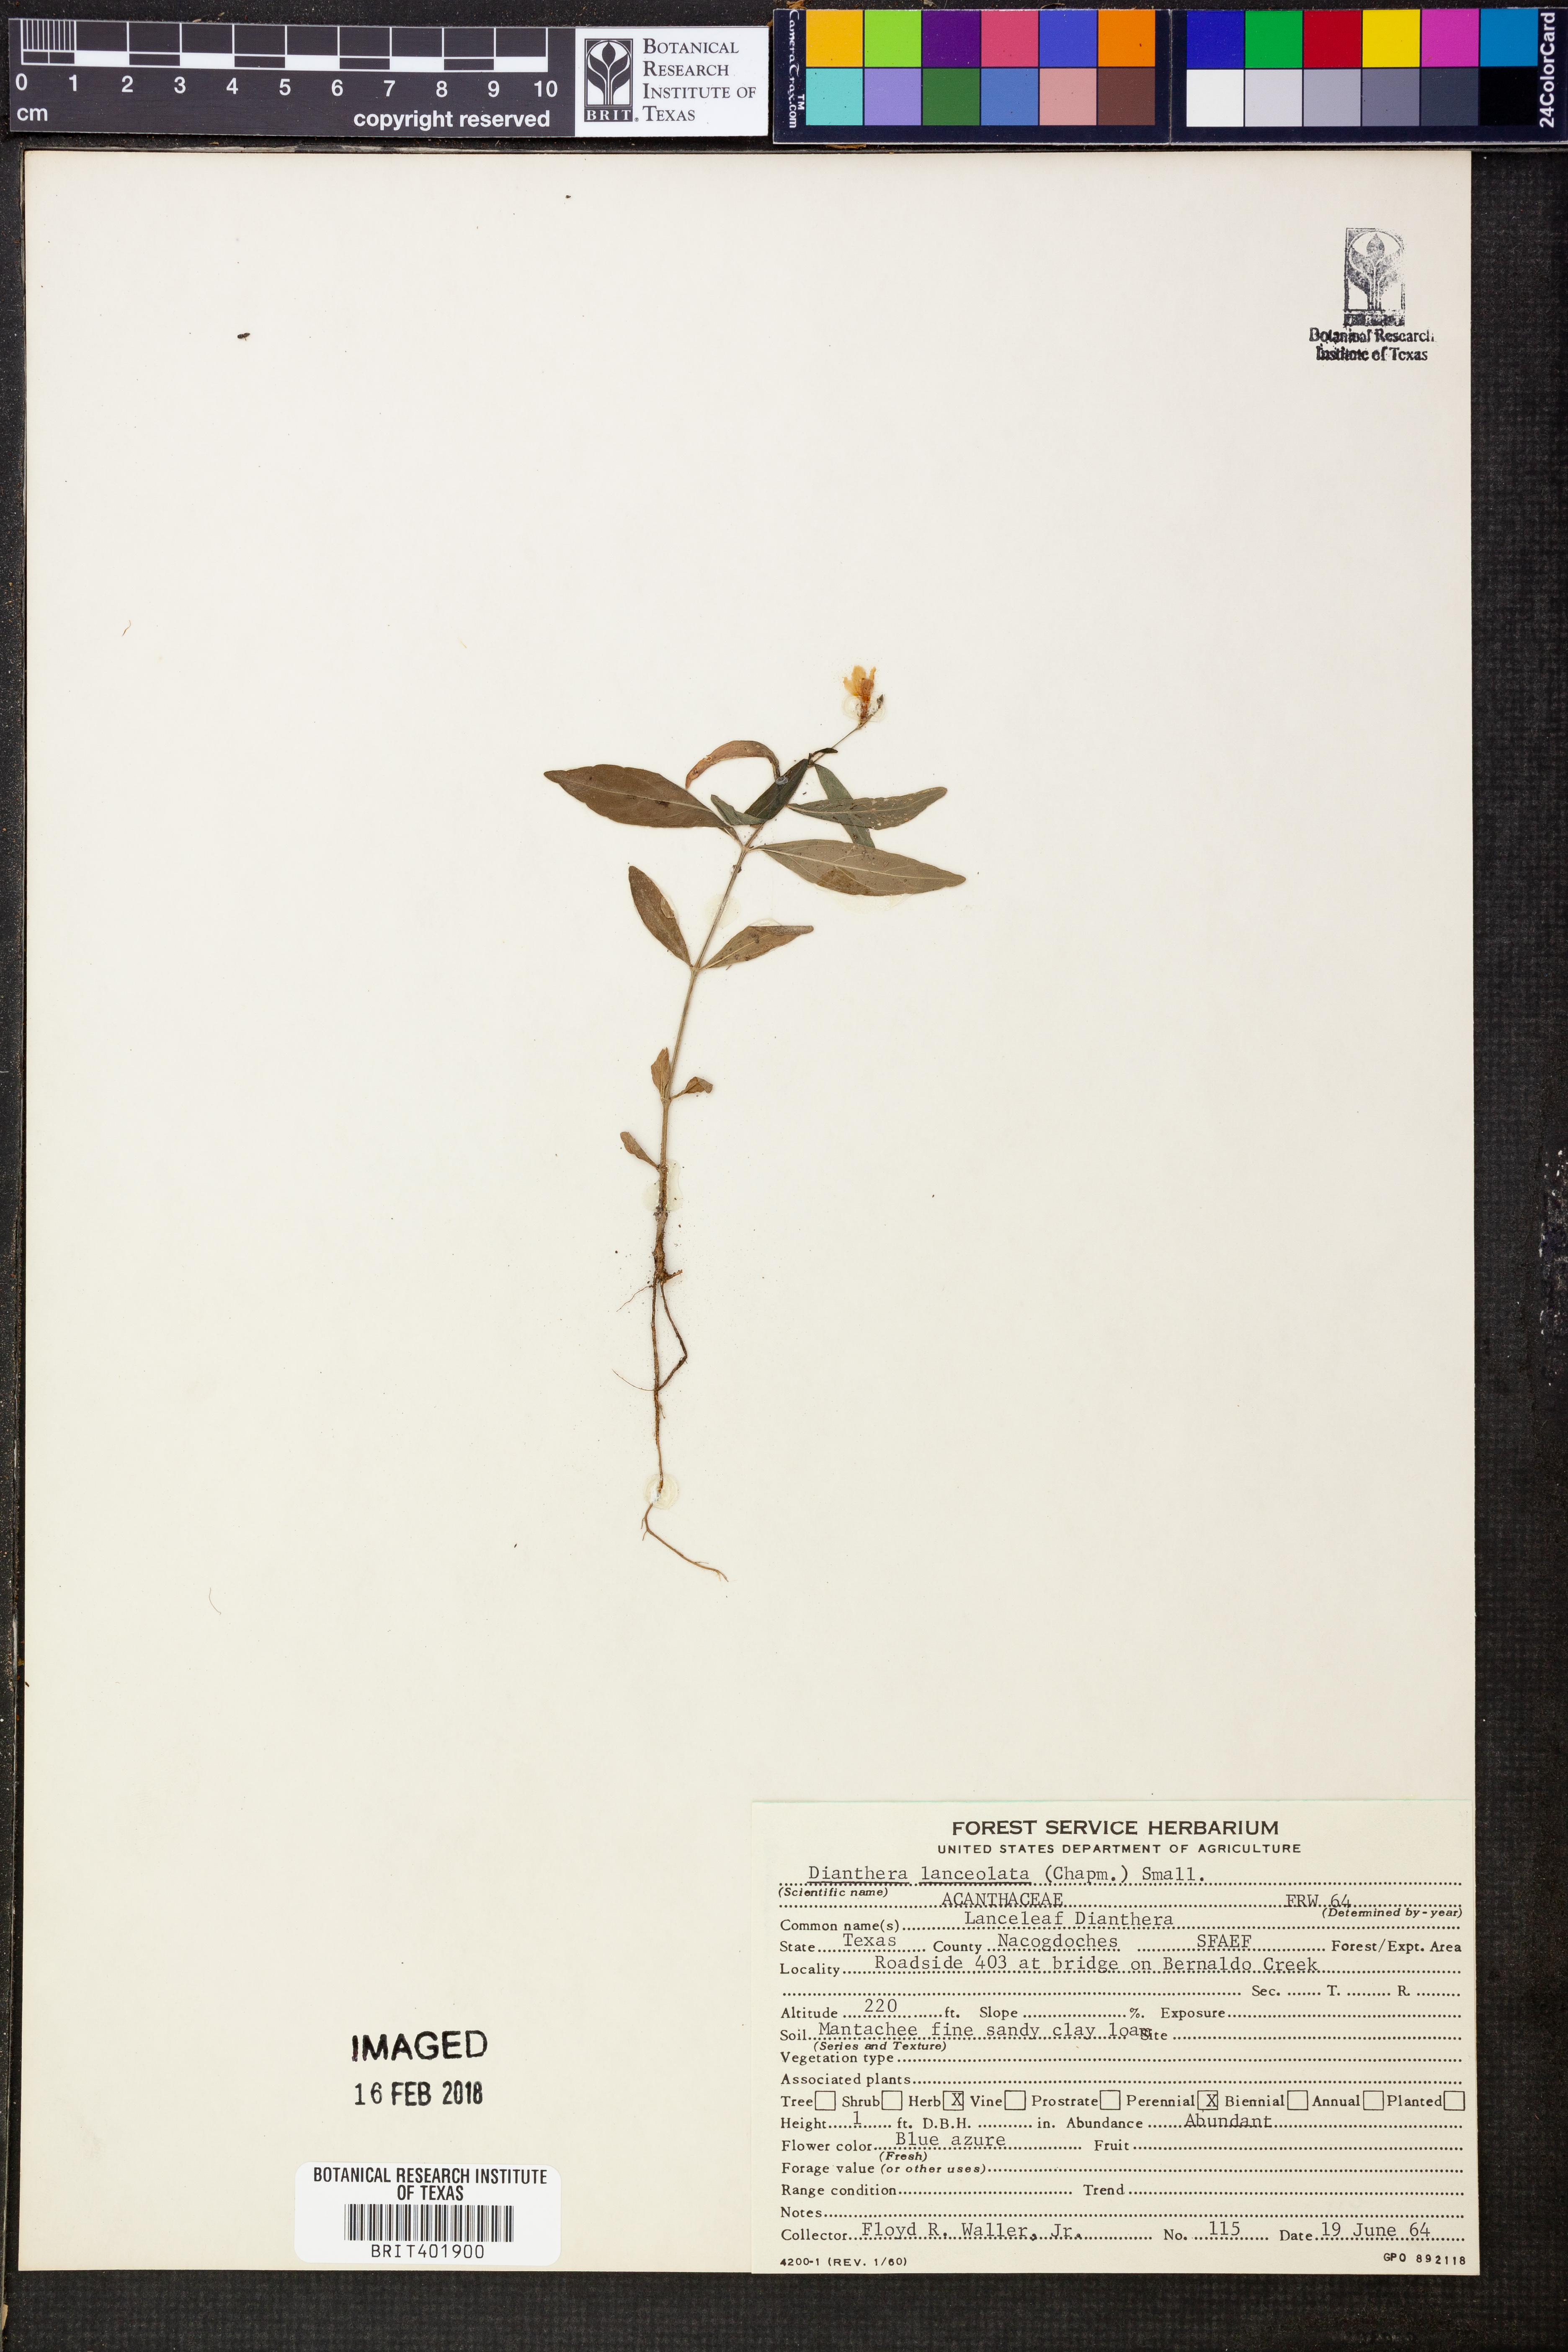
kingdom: Plantae
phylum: Tracheophyta
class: Magnoliopsida
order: Lamiales
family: Acanthaceae
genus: Justicia
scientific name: Justicia lanceolata
